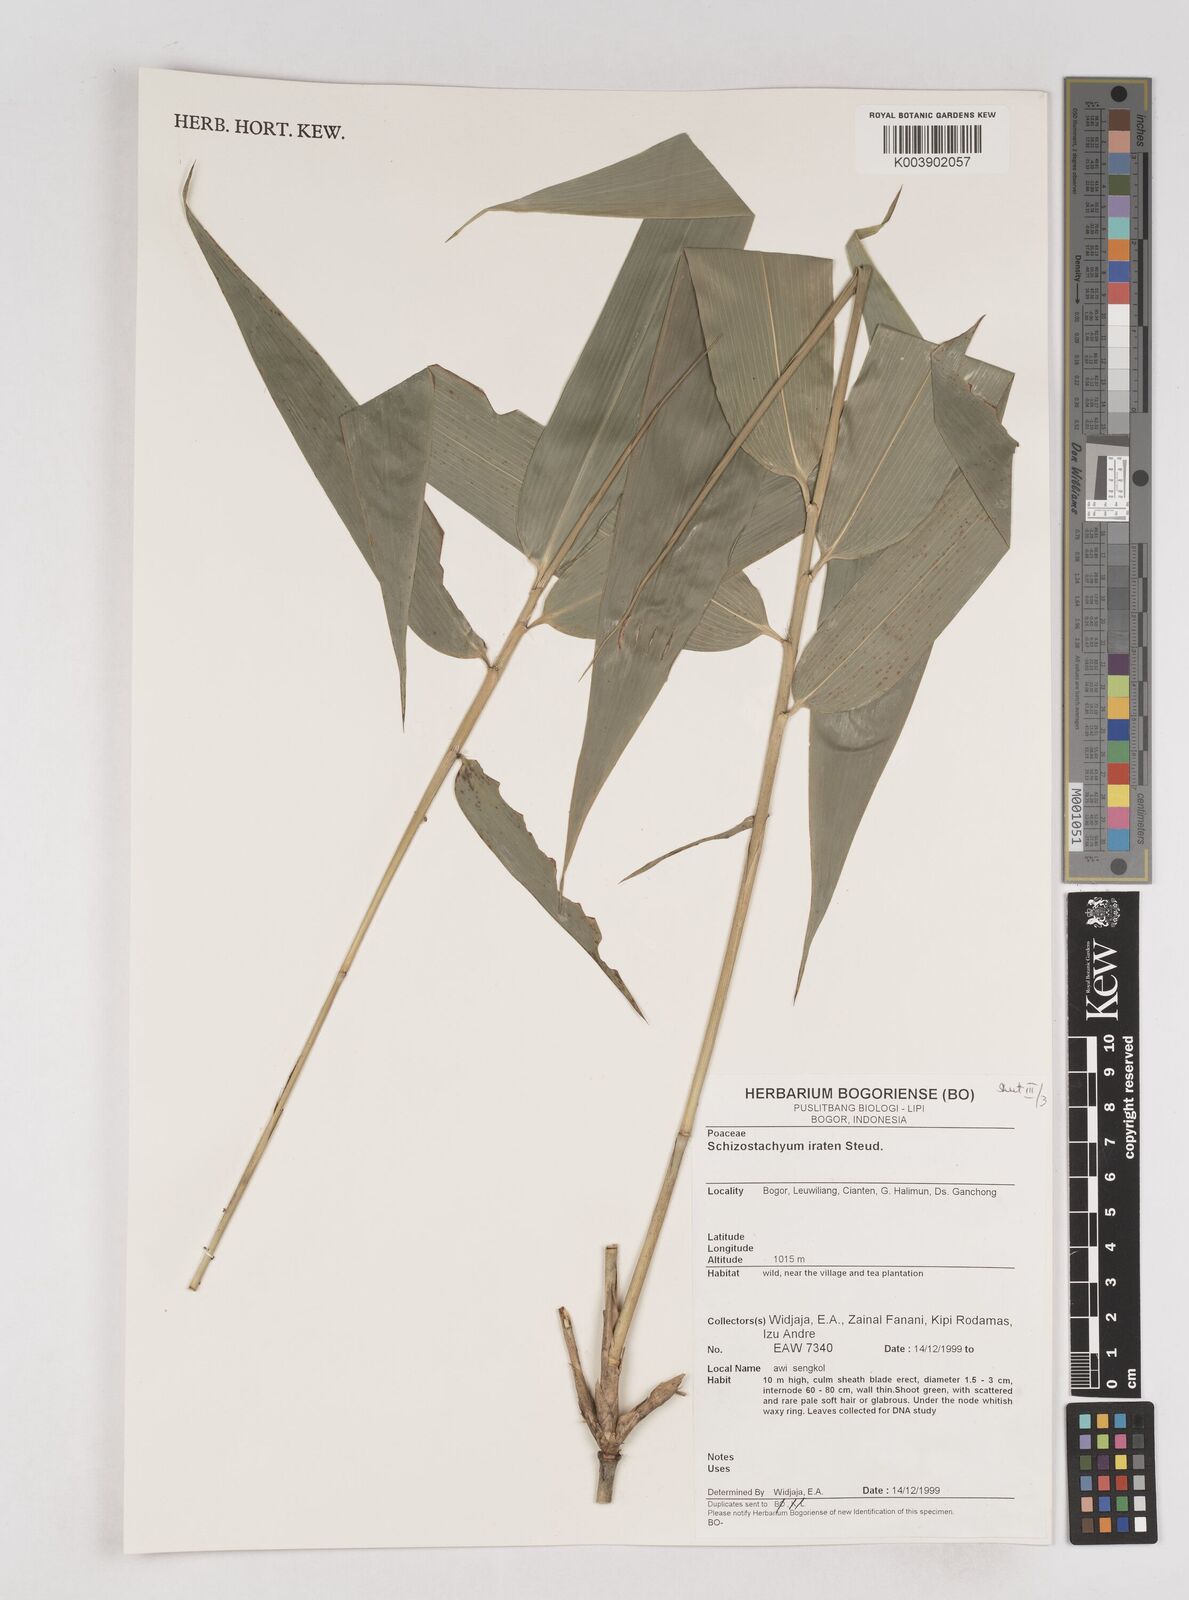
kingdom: Plantae
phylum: Tracheophyta
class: Liliopsida
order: Poales
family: Poaceae
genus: Schizostachyum
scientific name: Schizostachyum iraten
